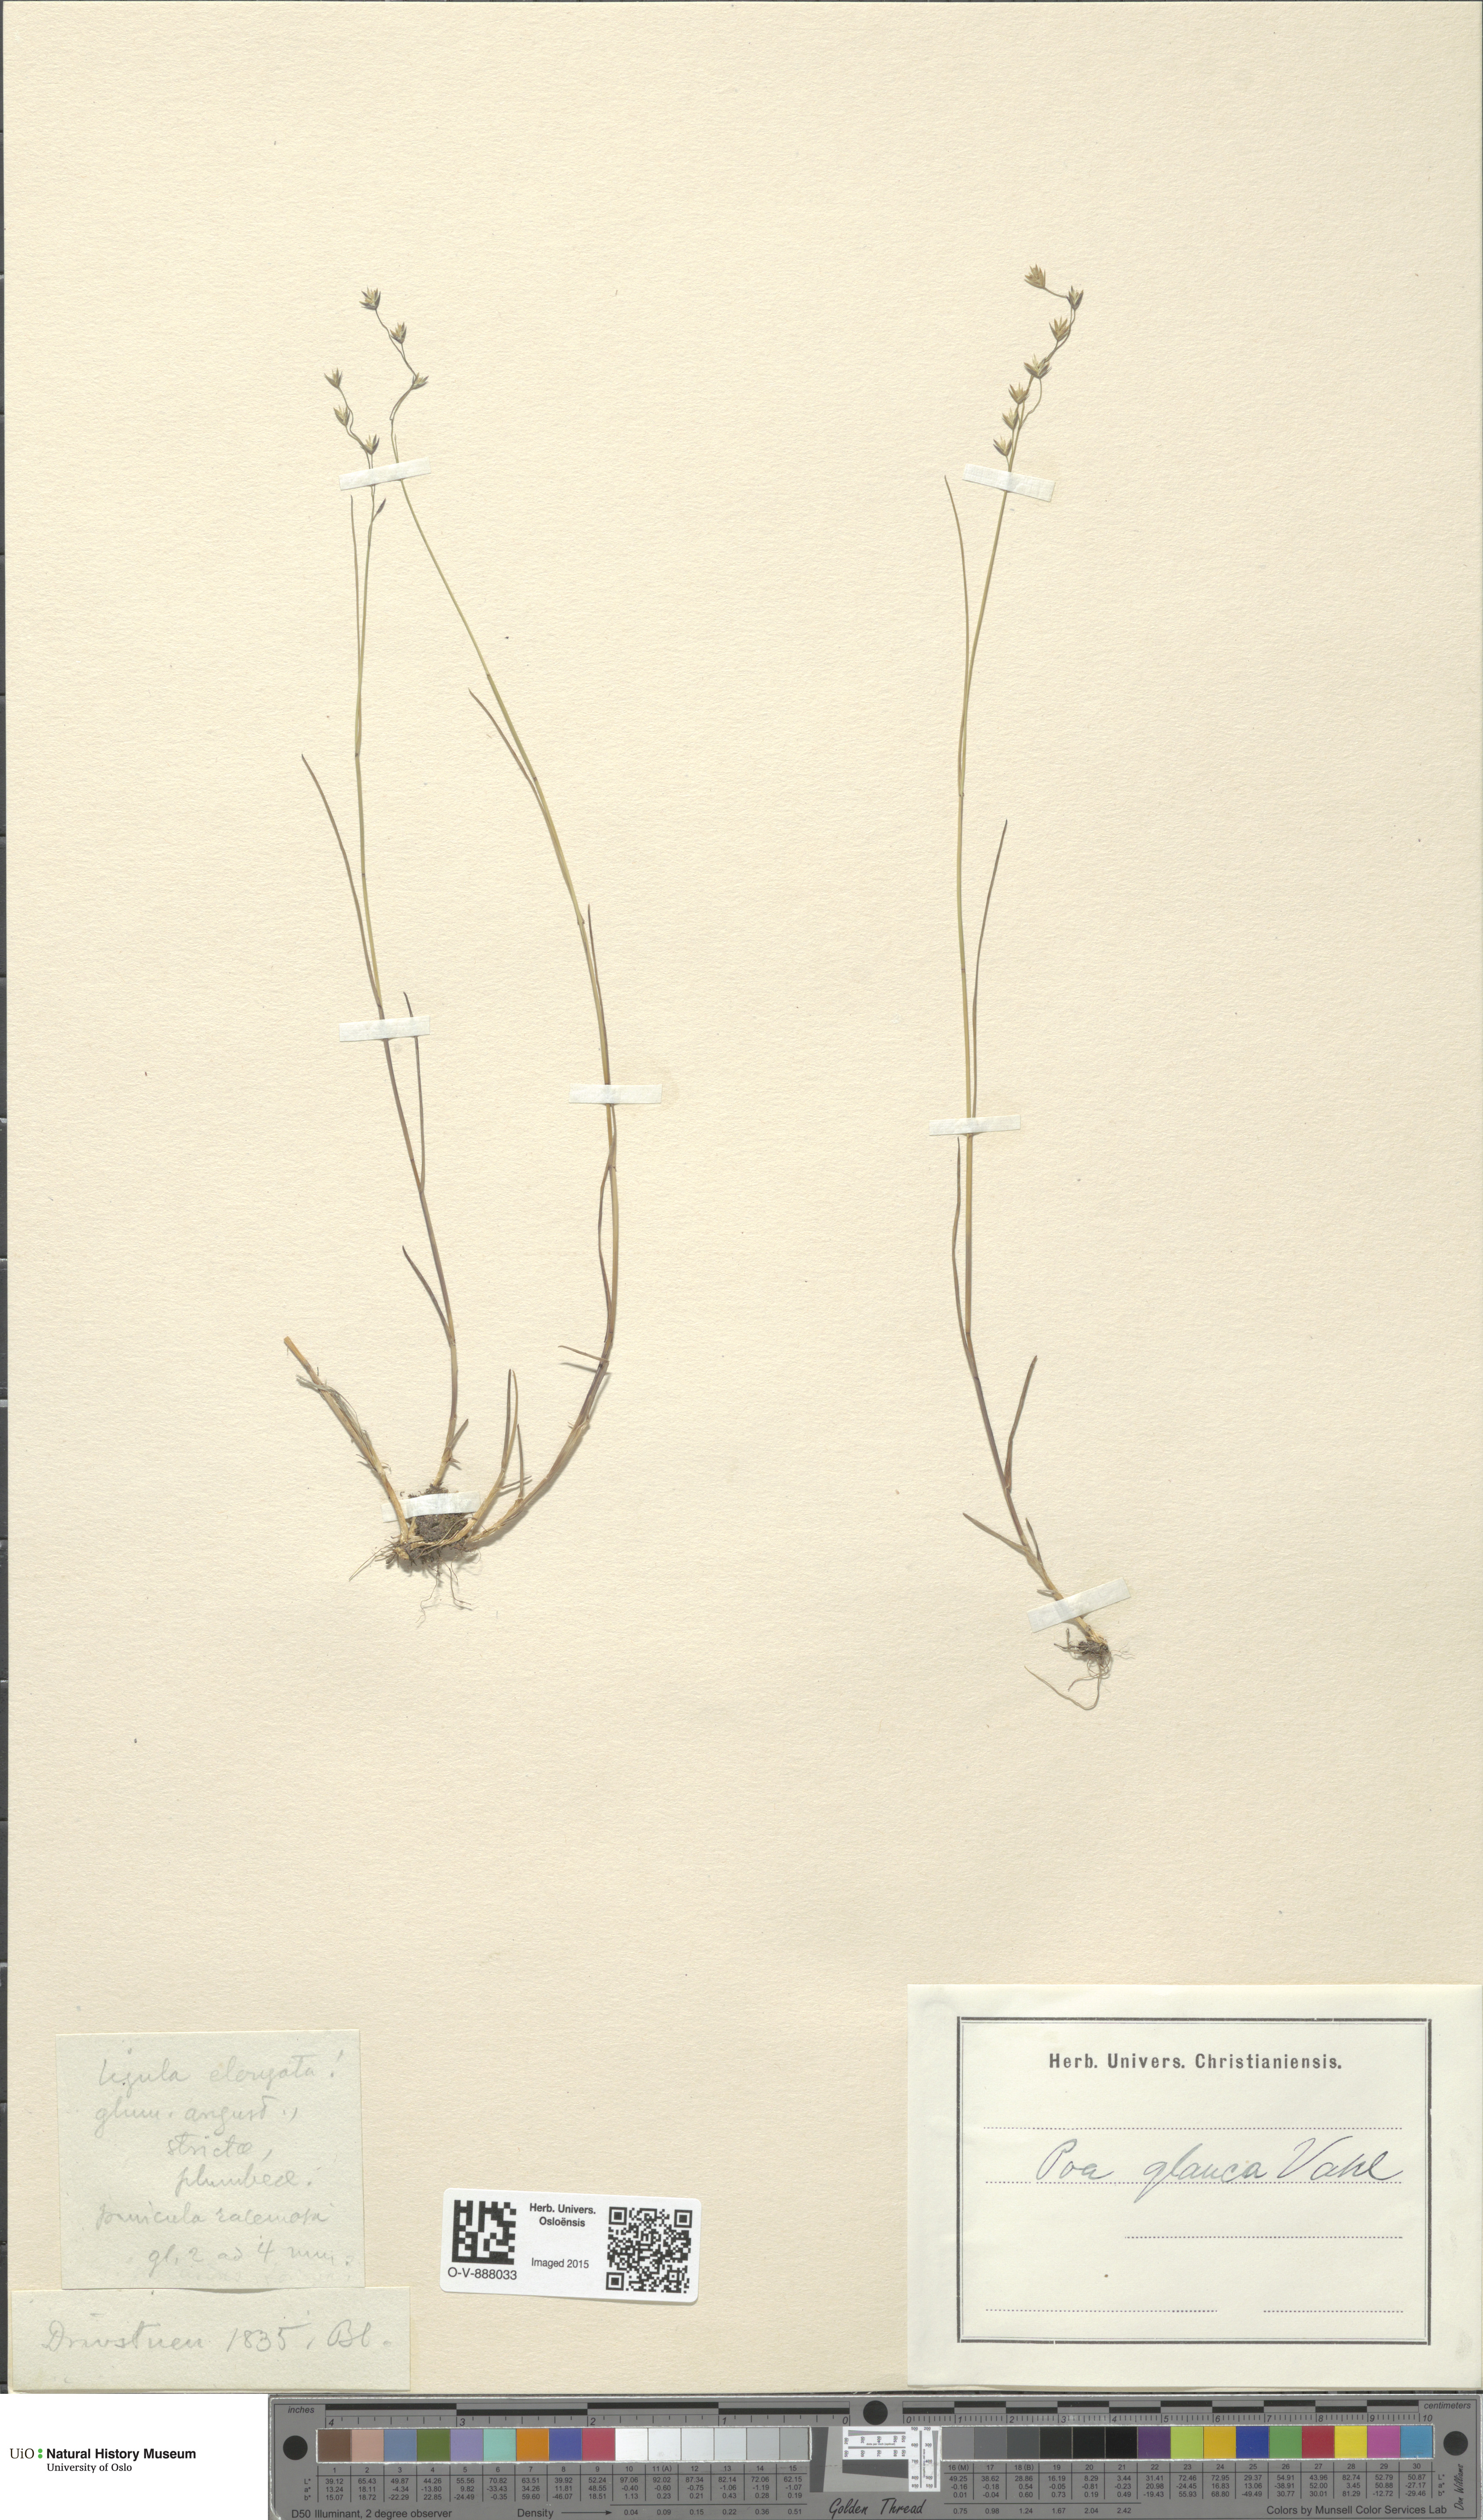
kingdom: Plantae
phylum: Tracheophyta
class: Liliopsida
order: Poales
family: Poaceae
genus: Poa
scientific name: Poa glauca
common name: Glaucous bluegrass
